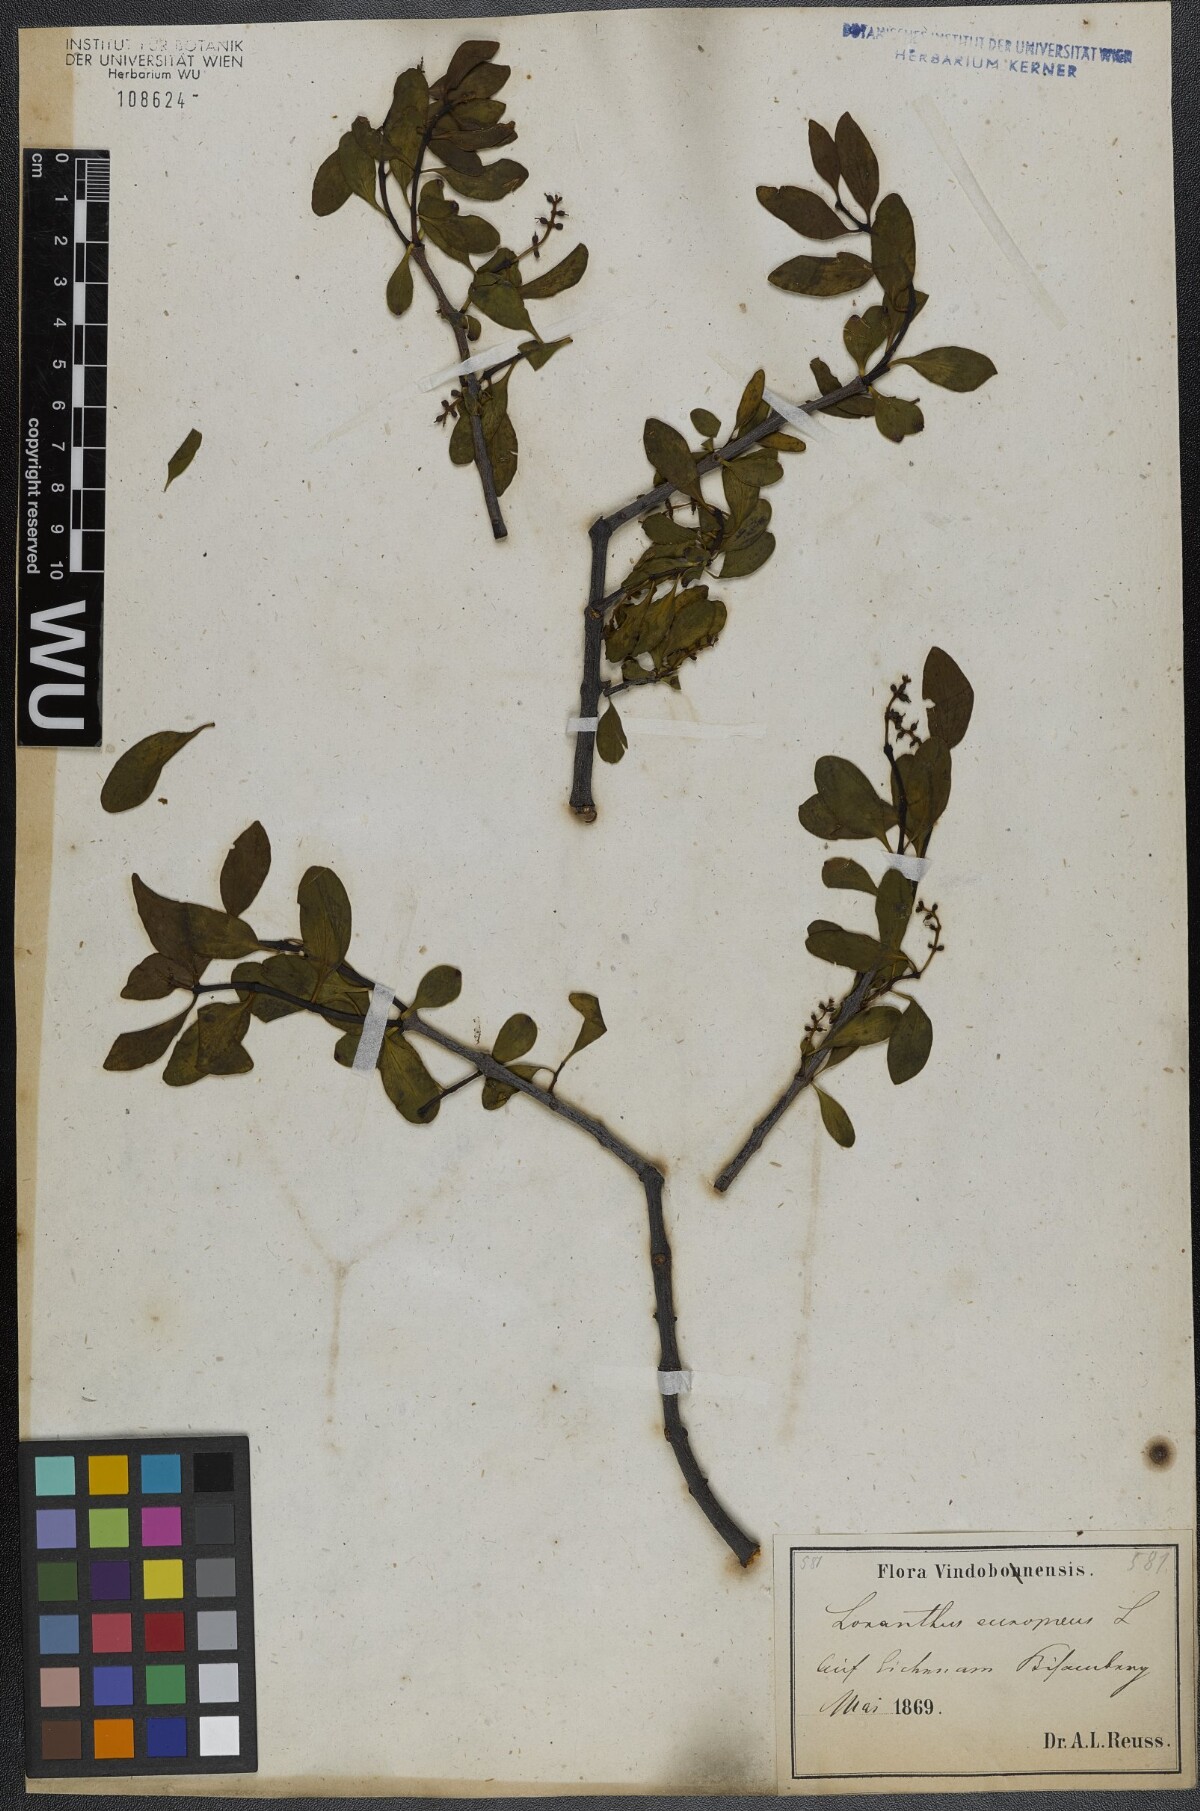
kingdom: Plantae
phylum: Tracheophyta
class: Magnoliopsida
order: Santalales
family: Loranthaceae
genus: Loranthus
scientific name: Loranthus europaeus
